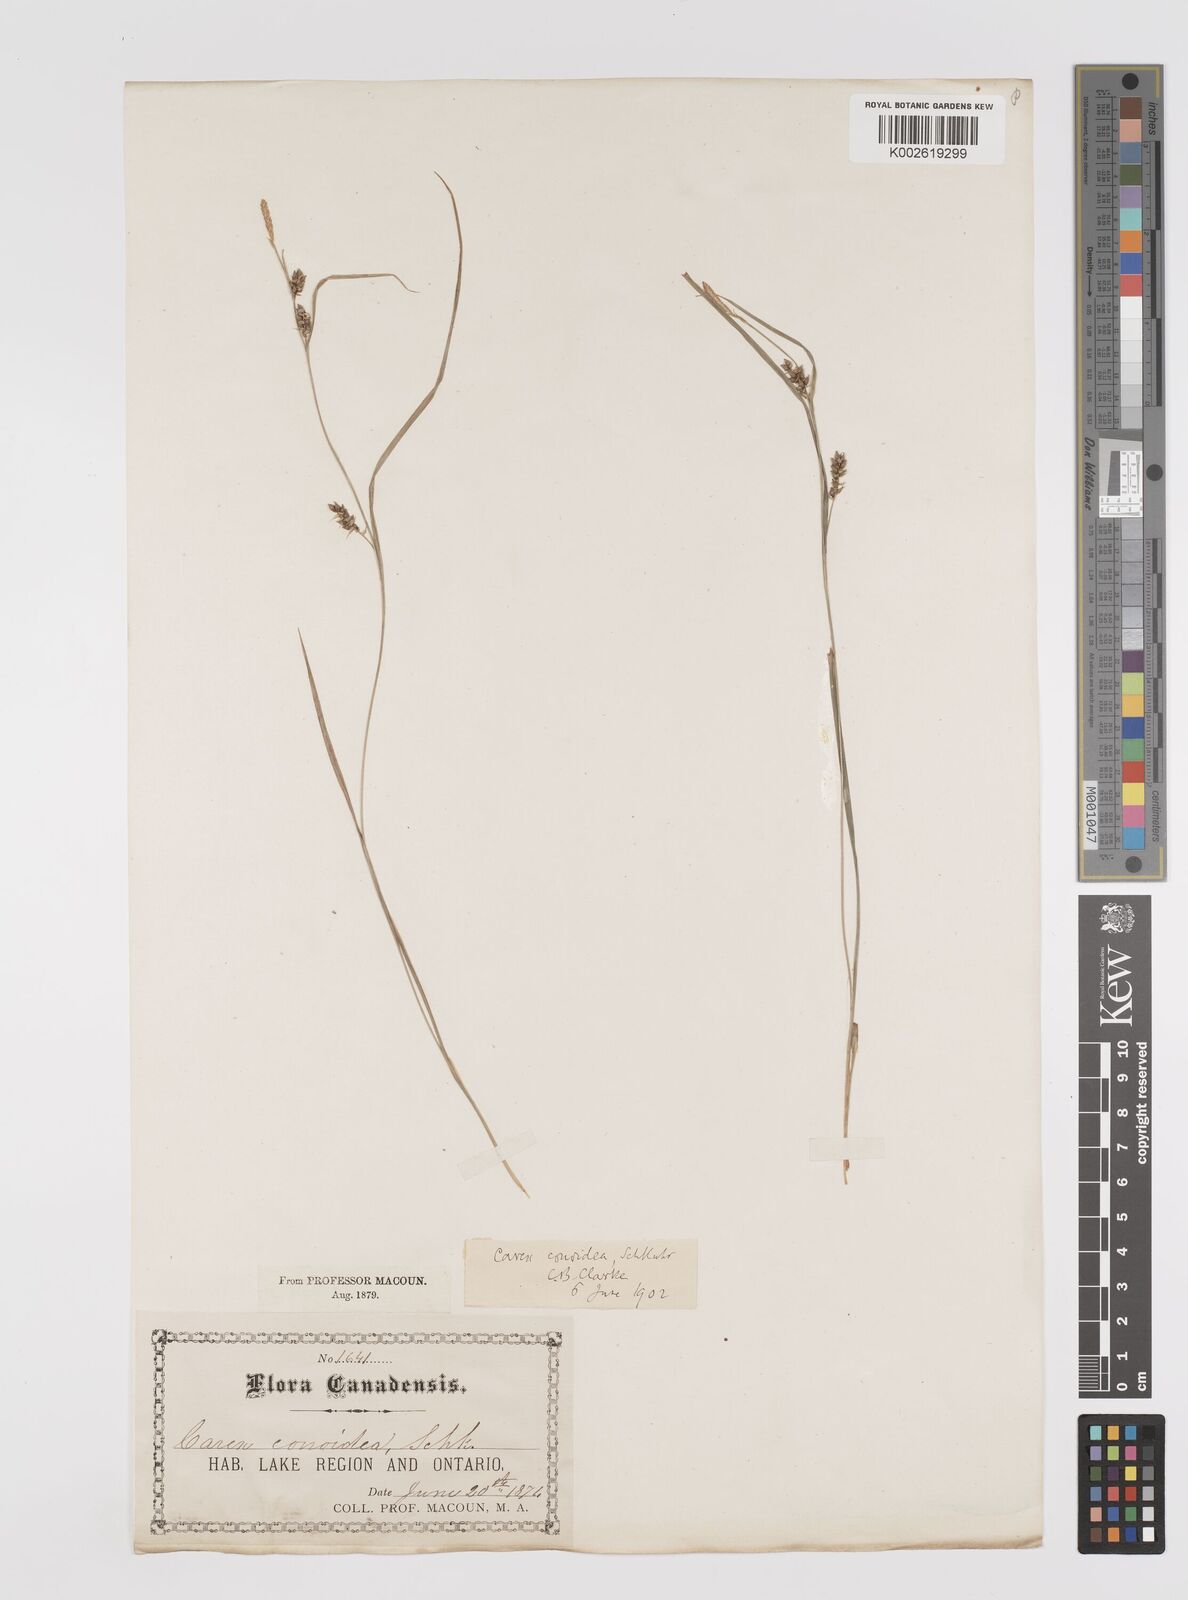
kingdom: Plantae
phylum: Tracheophyta
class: Liliopsida
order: Poales
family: Cyperaceae
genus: Carex
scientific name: Carex conoidea
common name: Cone shaped sedge
